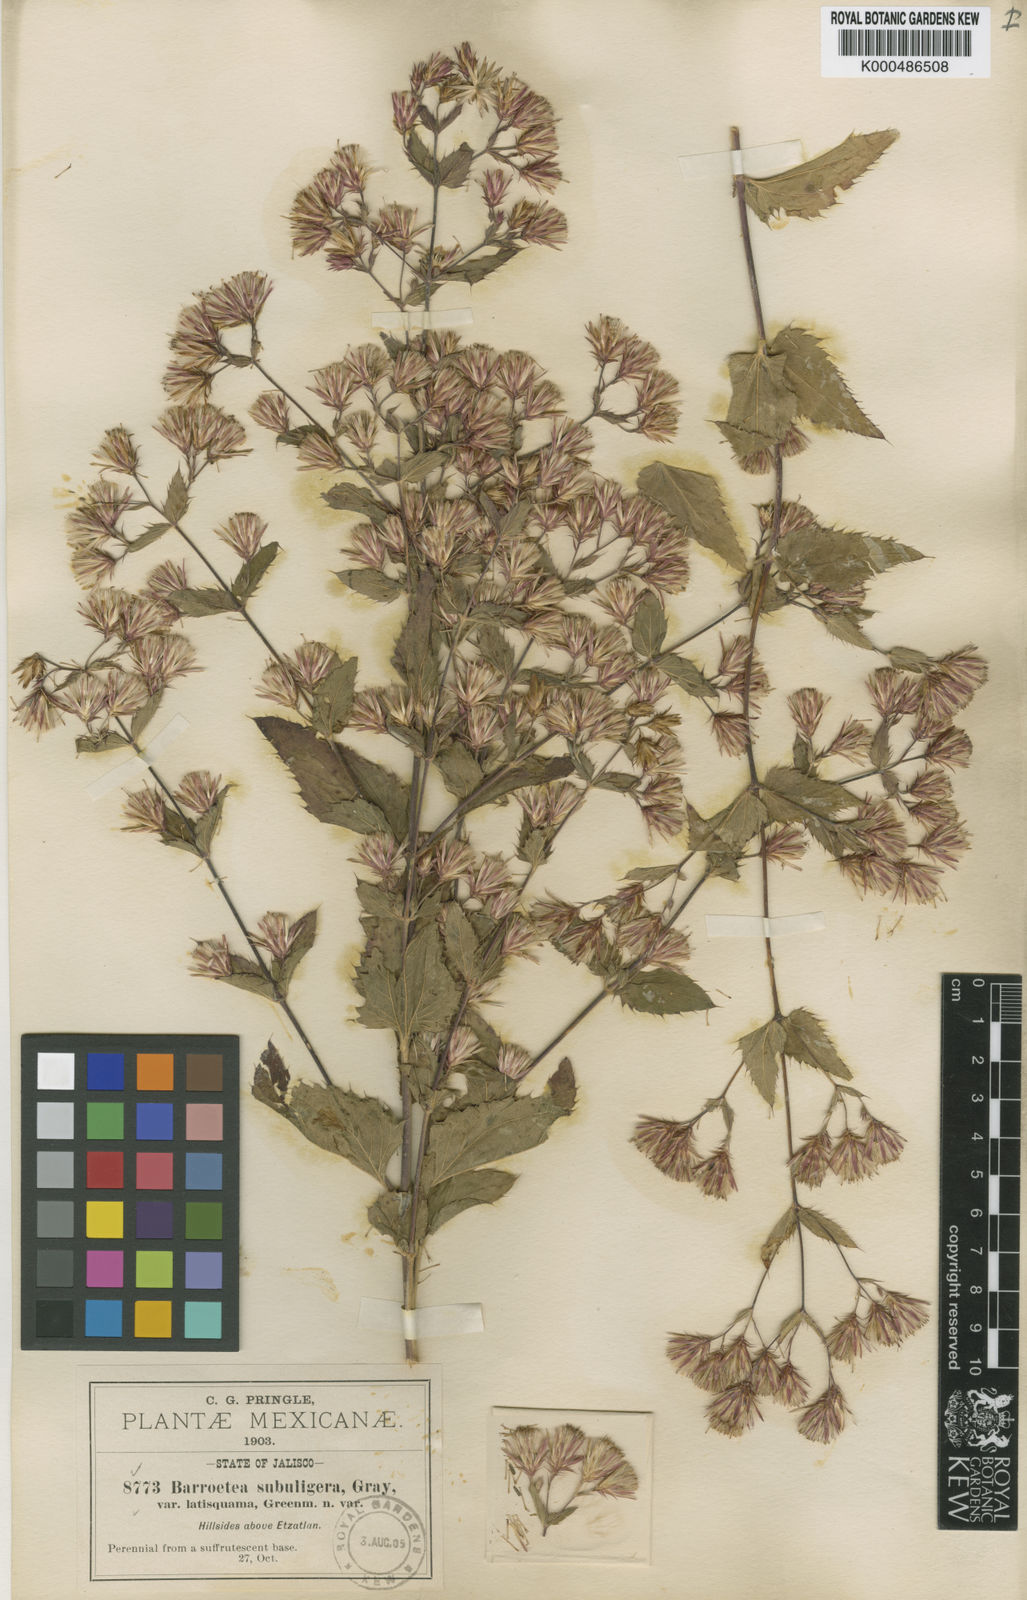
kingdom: Plantae
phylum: Tracheophyta
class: Magnoliopsida
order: Asterales
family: Asteraceae
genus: Brickellia
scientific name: Brickellia subuligera
